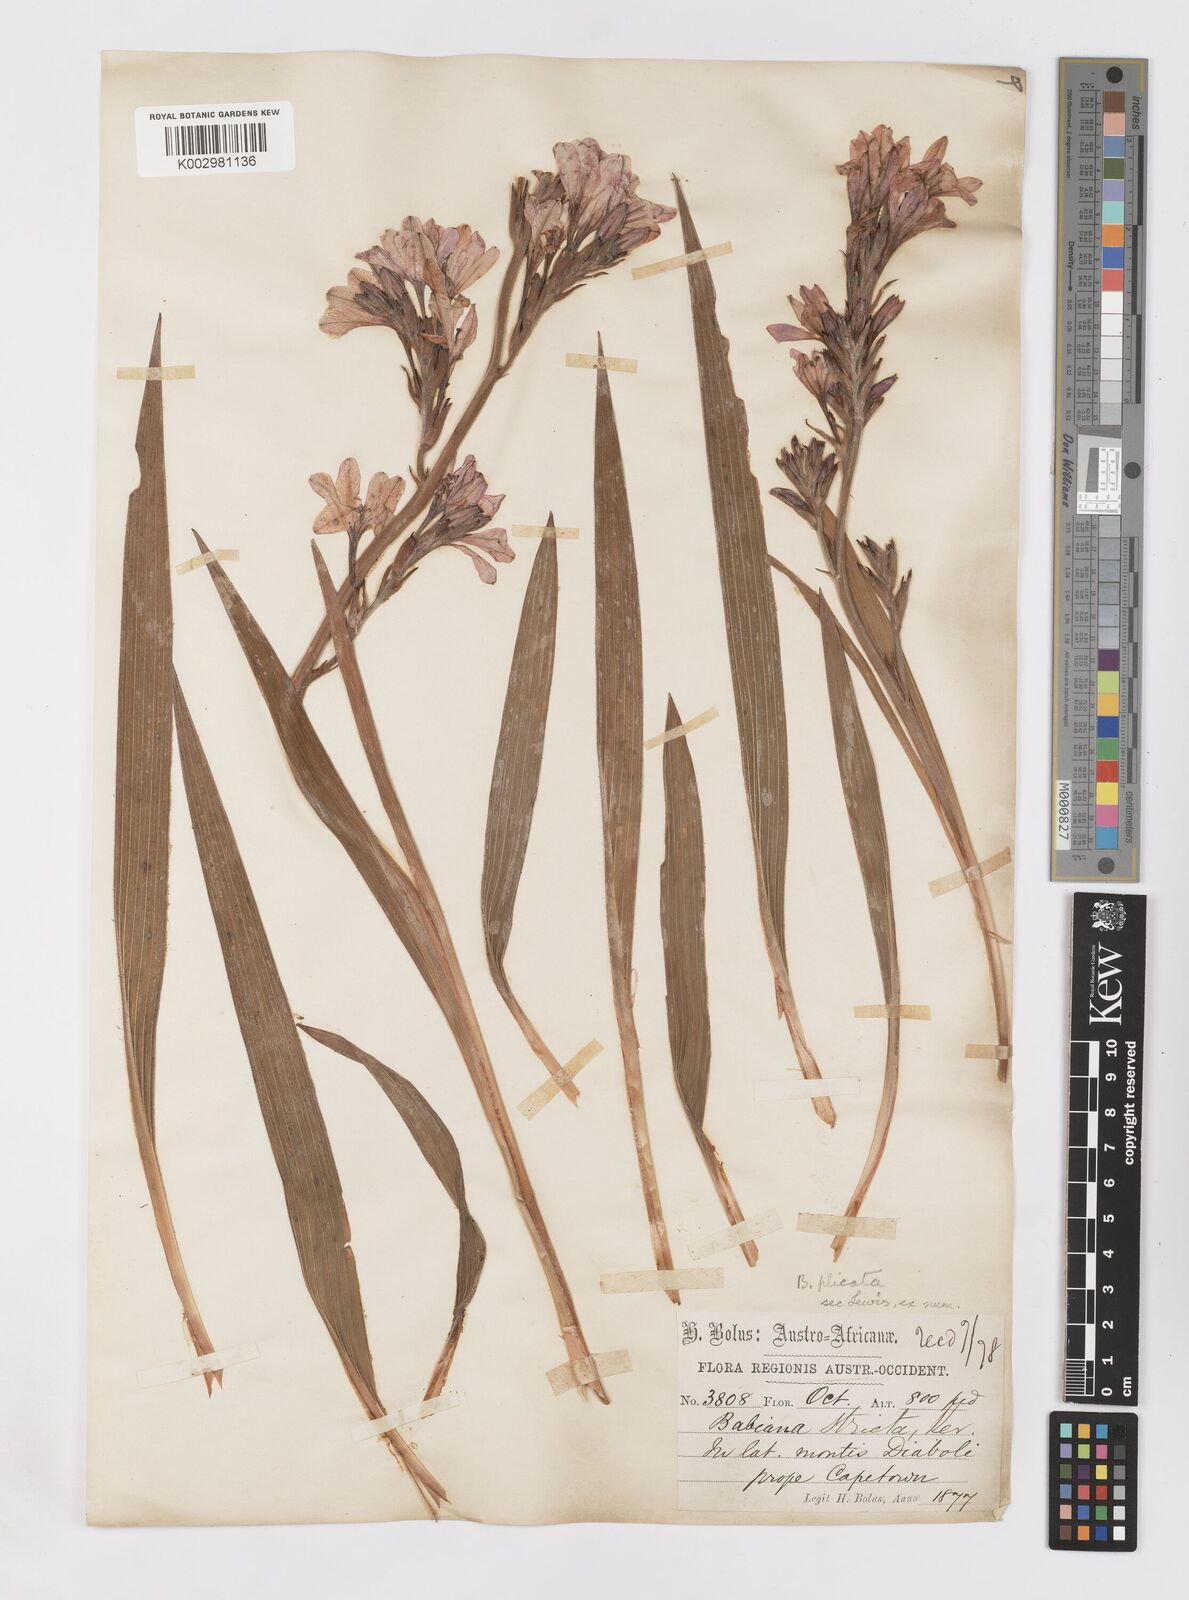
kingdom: Plantae
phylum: Tracheophyta
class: Liliopsida
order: Asparagales
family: Iridaceae
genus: Babiana
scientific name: Babiana
